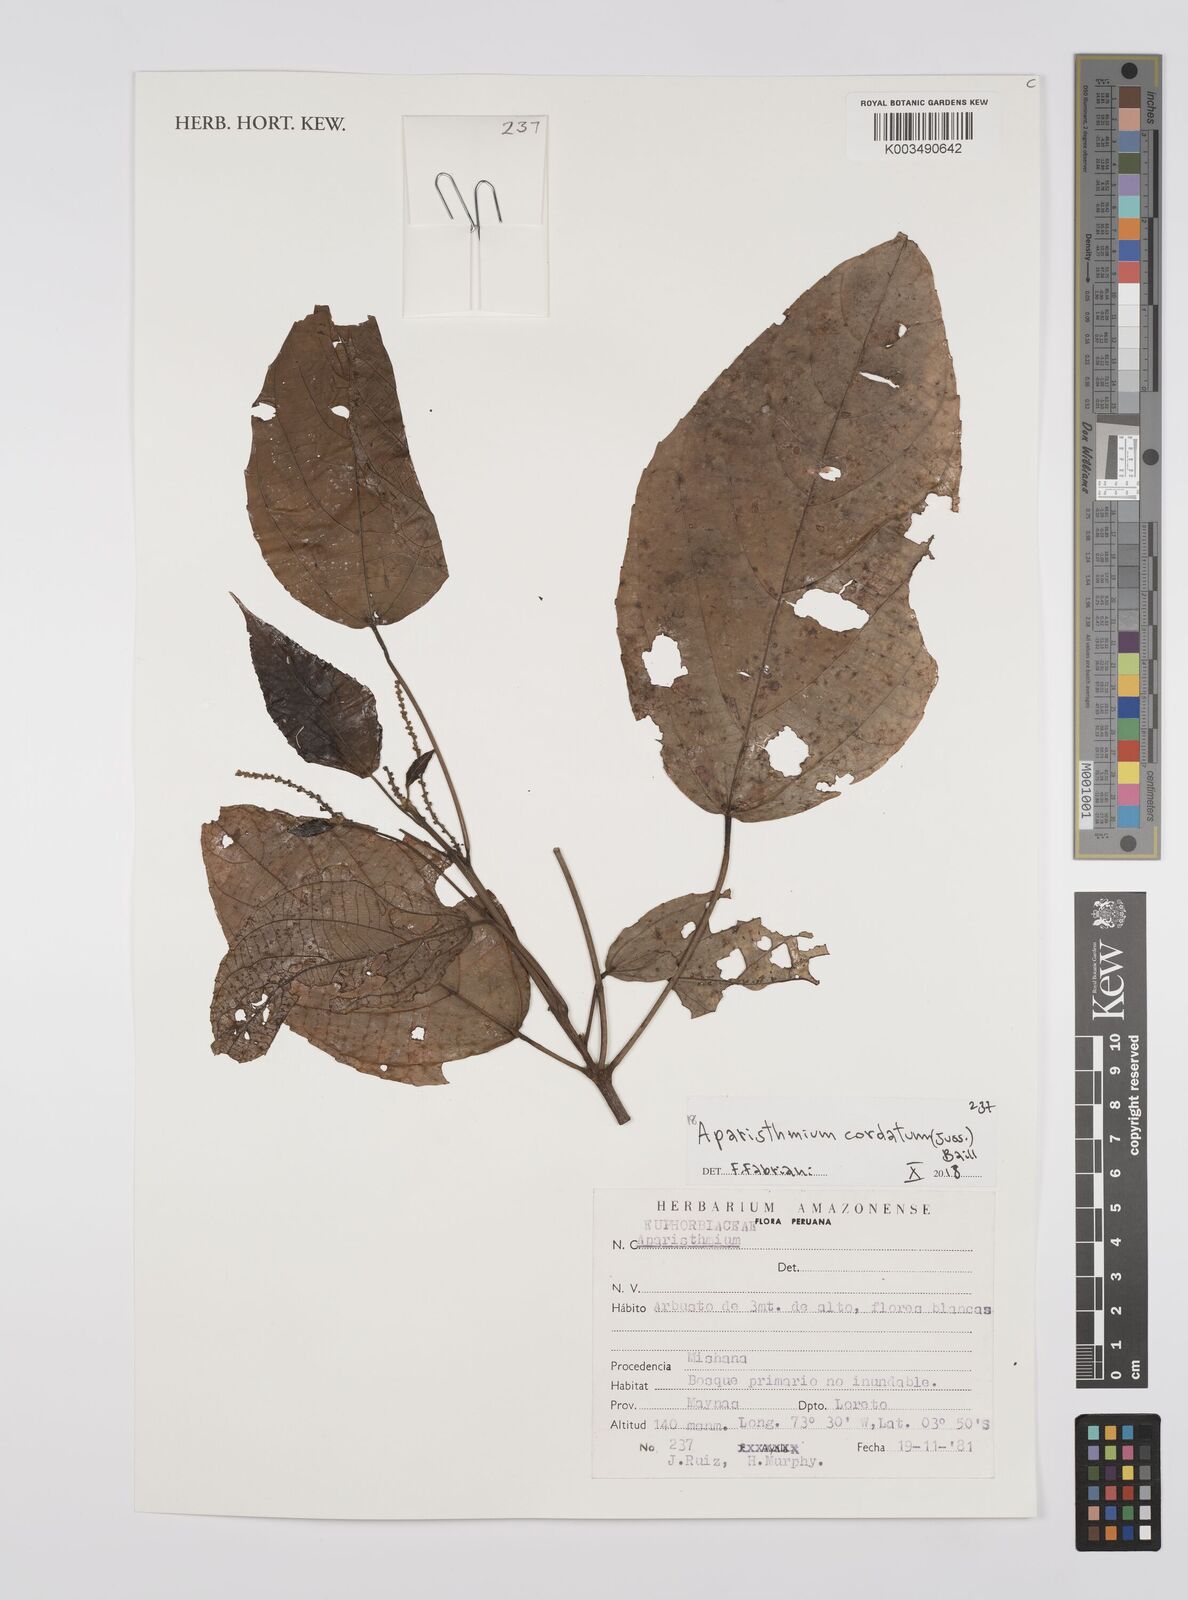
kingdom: Plantae
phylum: Tracheophyta
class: Magnoliopsida
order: Malpighiales
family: Euphorbiaceae
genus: Aparisthmium
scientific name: Aparisthmium cordatum
